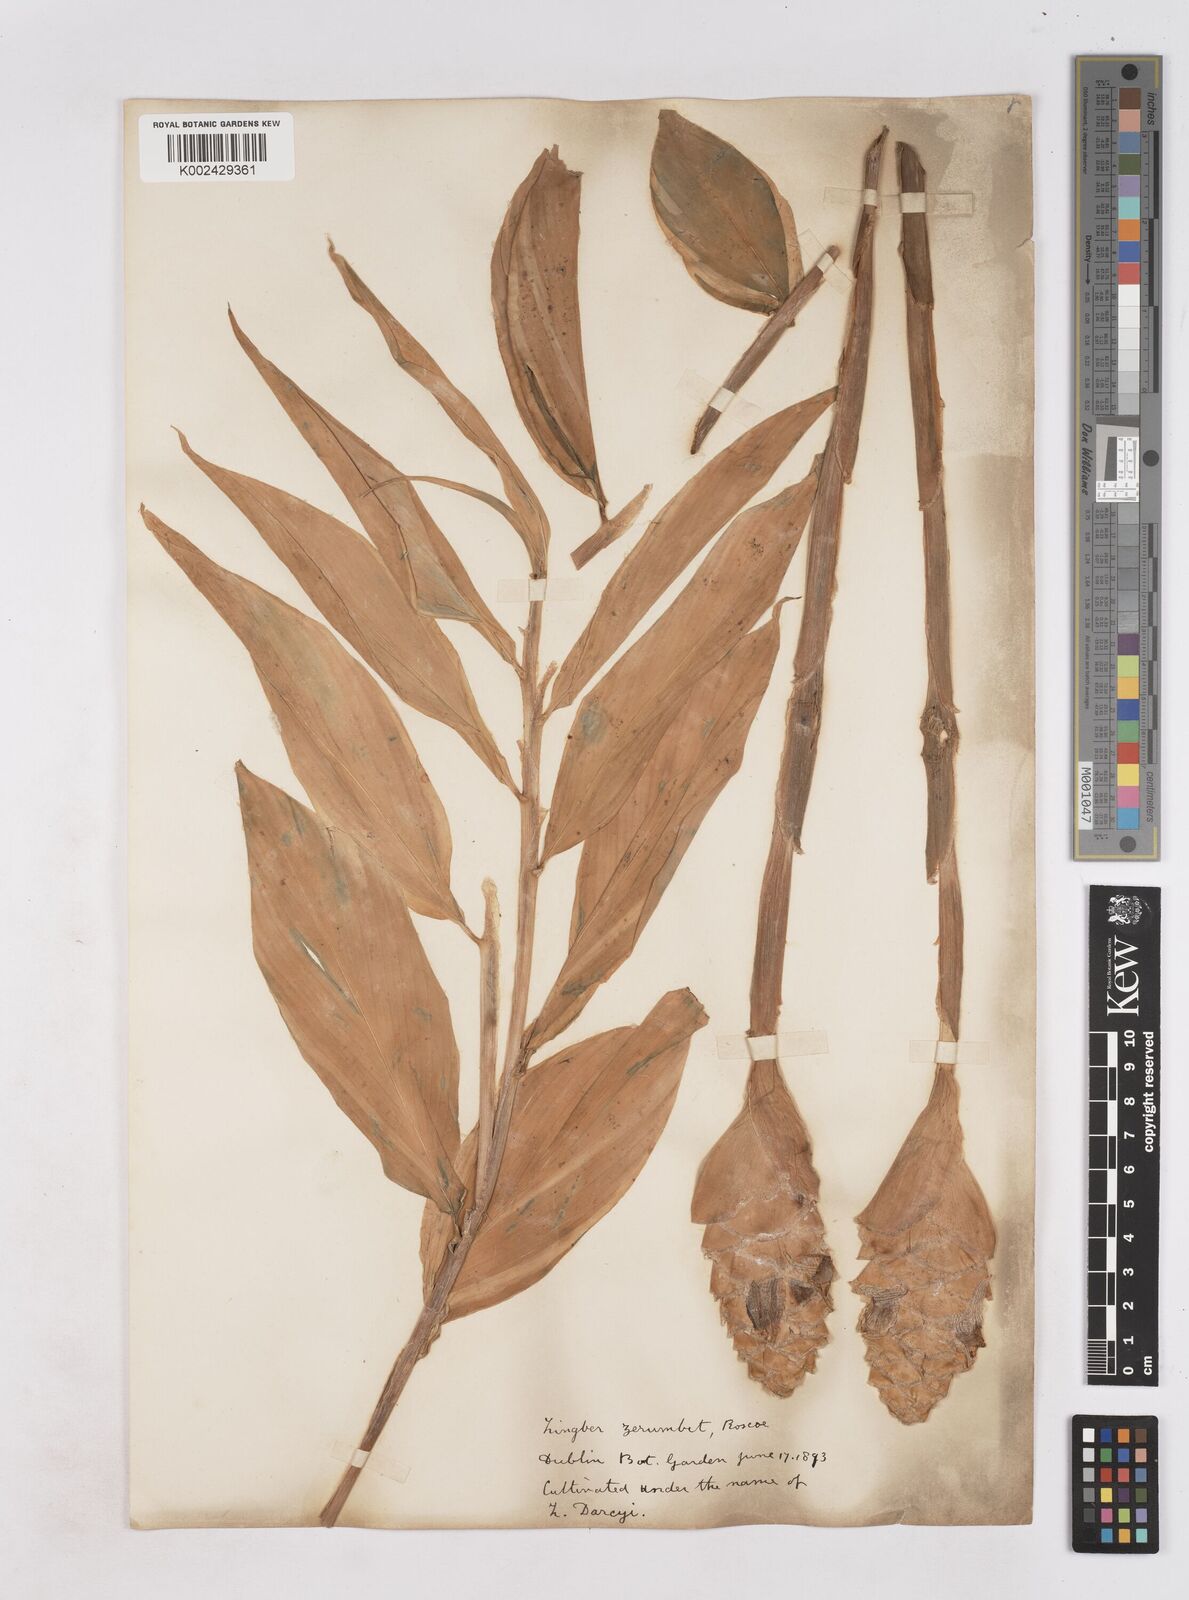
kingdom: Plantae
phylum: Tracheophyta
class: Liliopsida
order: Zingiberales
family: Zingiberaceae
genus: Zingiber
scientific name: Zingiber zerumbet
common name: Bitter ginger
